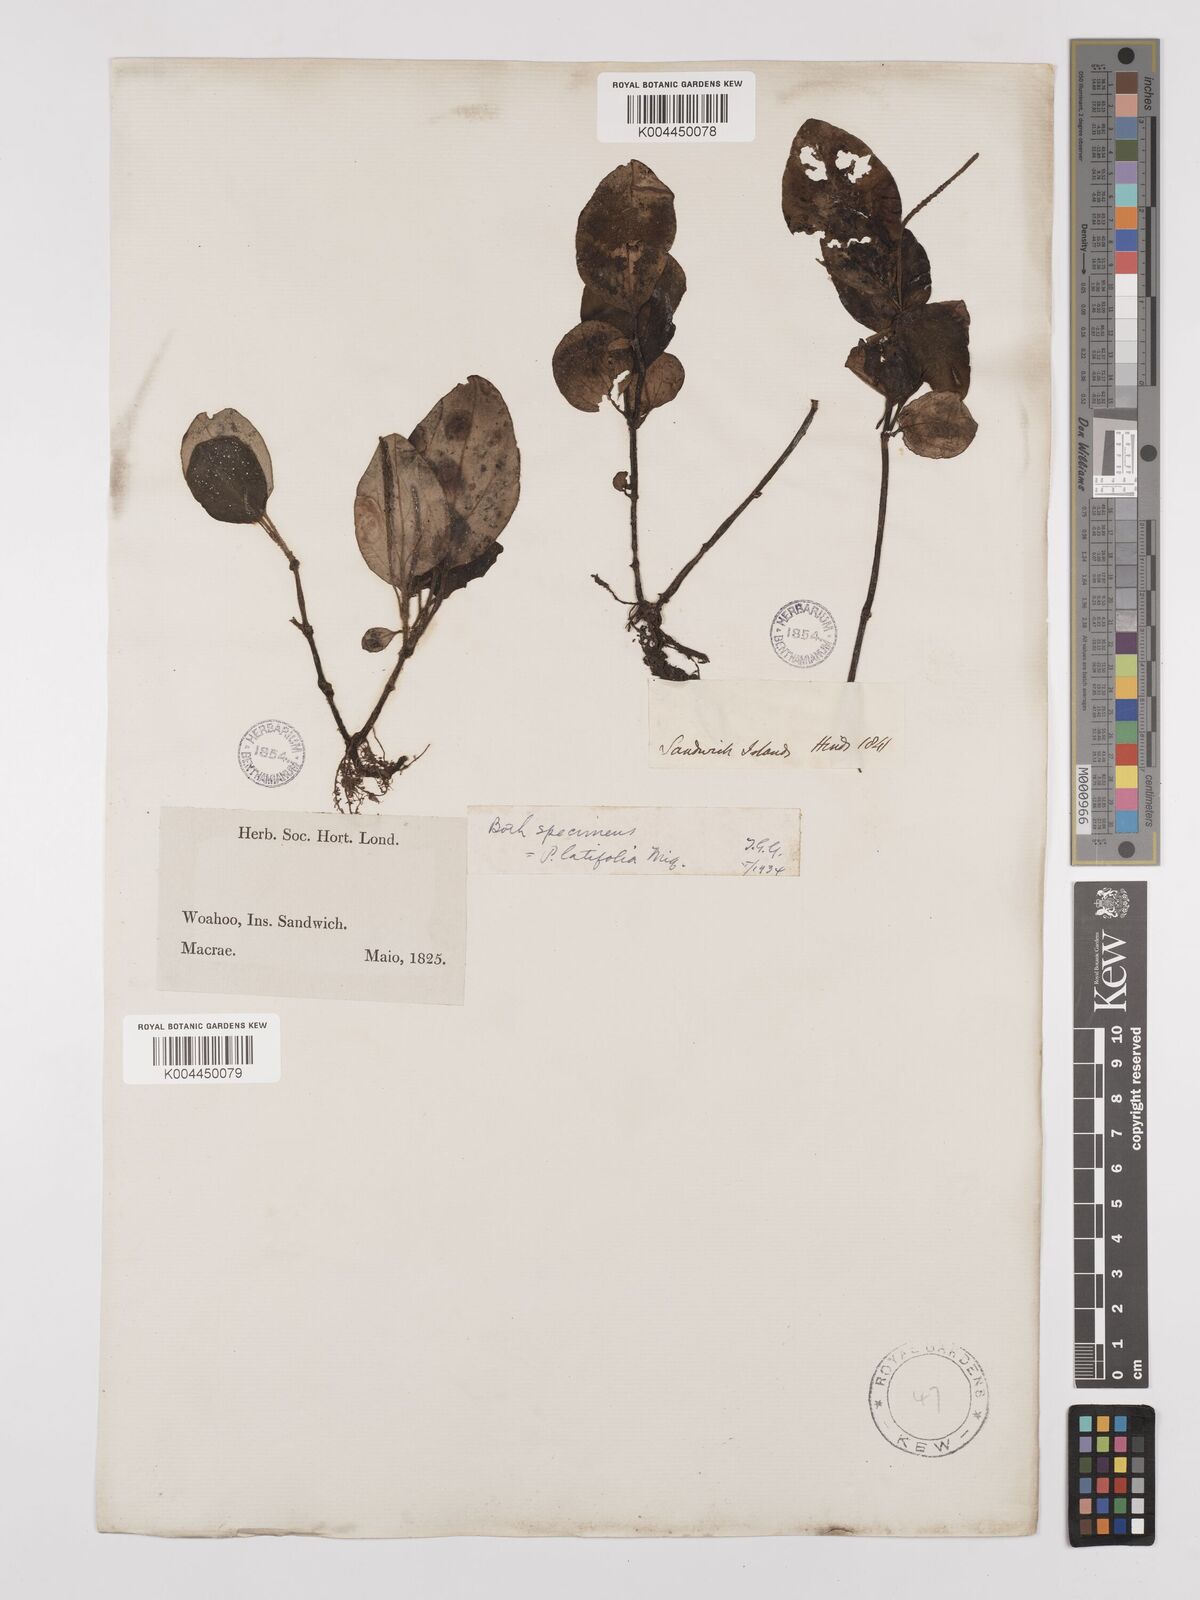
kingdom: Plantae
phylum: Tracheophyta
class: Magnoliopsida
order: Piperales
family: Piperaceae
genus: Peperomia
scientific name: Peperomia latifolia
